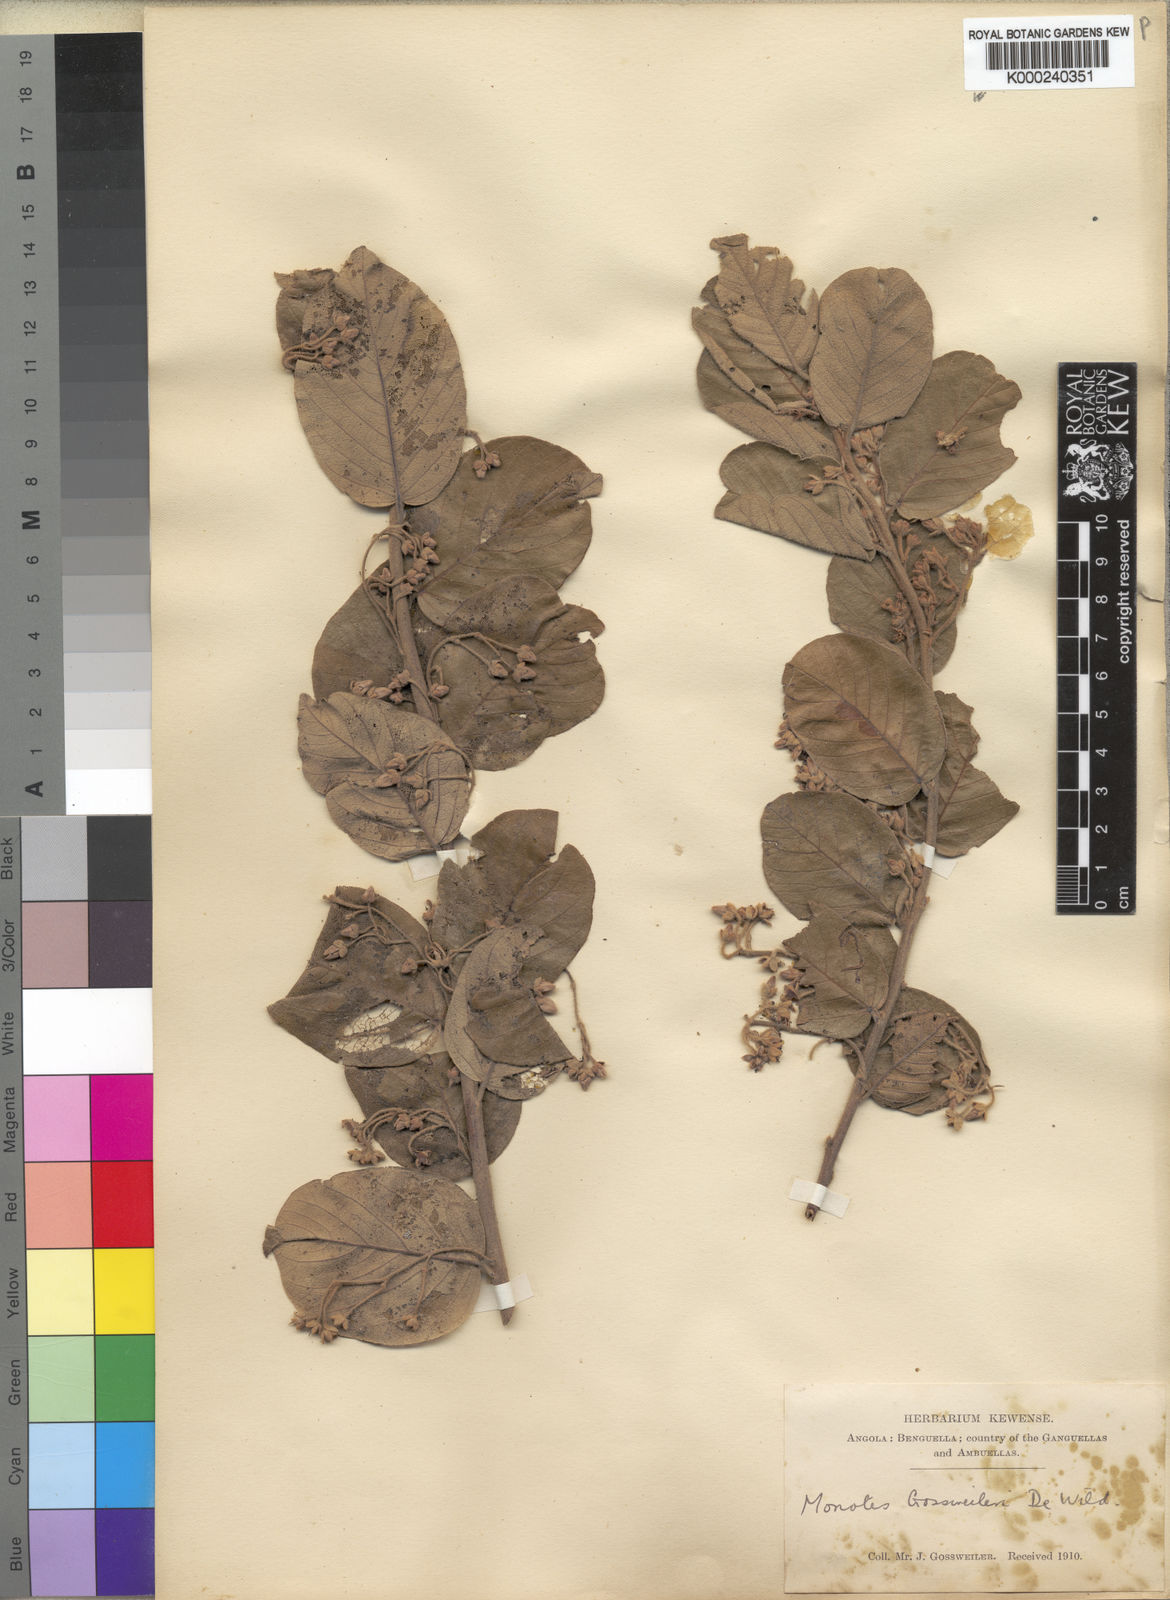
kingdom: Plantae
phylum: Tracheophyta
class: Magnoliopsida
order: Malvales
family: Dipterocarpaceae
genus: Monotes
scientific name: Monotes gossweileri
